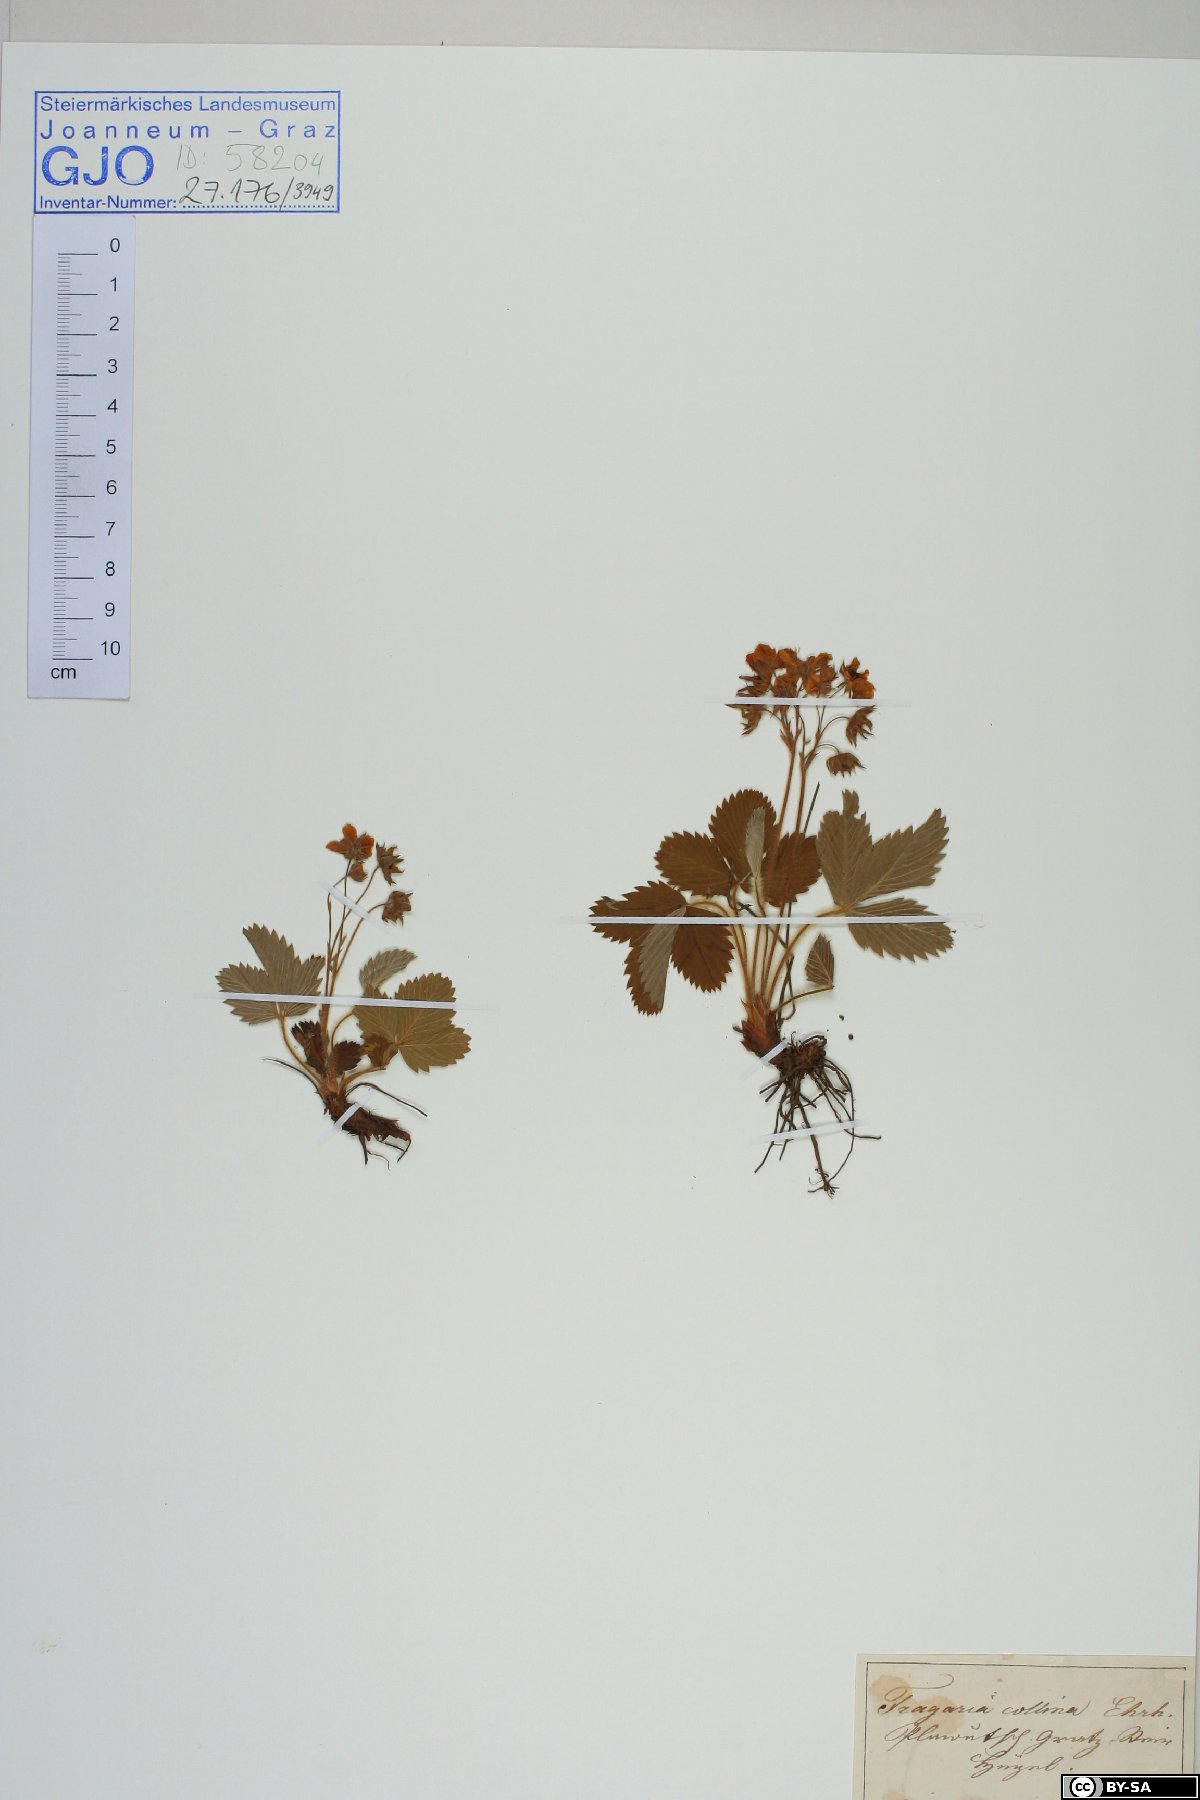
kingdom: Plantae
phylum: Tracheophyta
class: Magnoliopsida
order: Rosales
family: Rosaceae
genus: Fragaria
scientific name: Fragaria viridis
